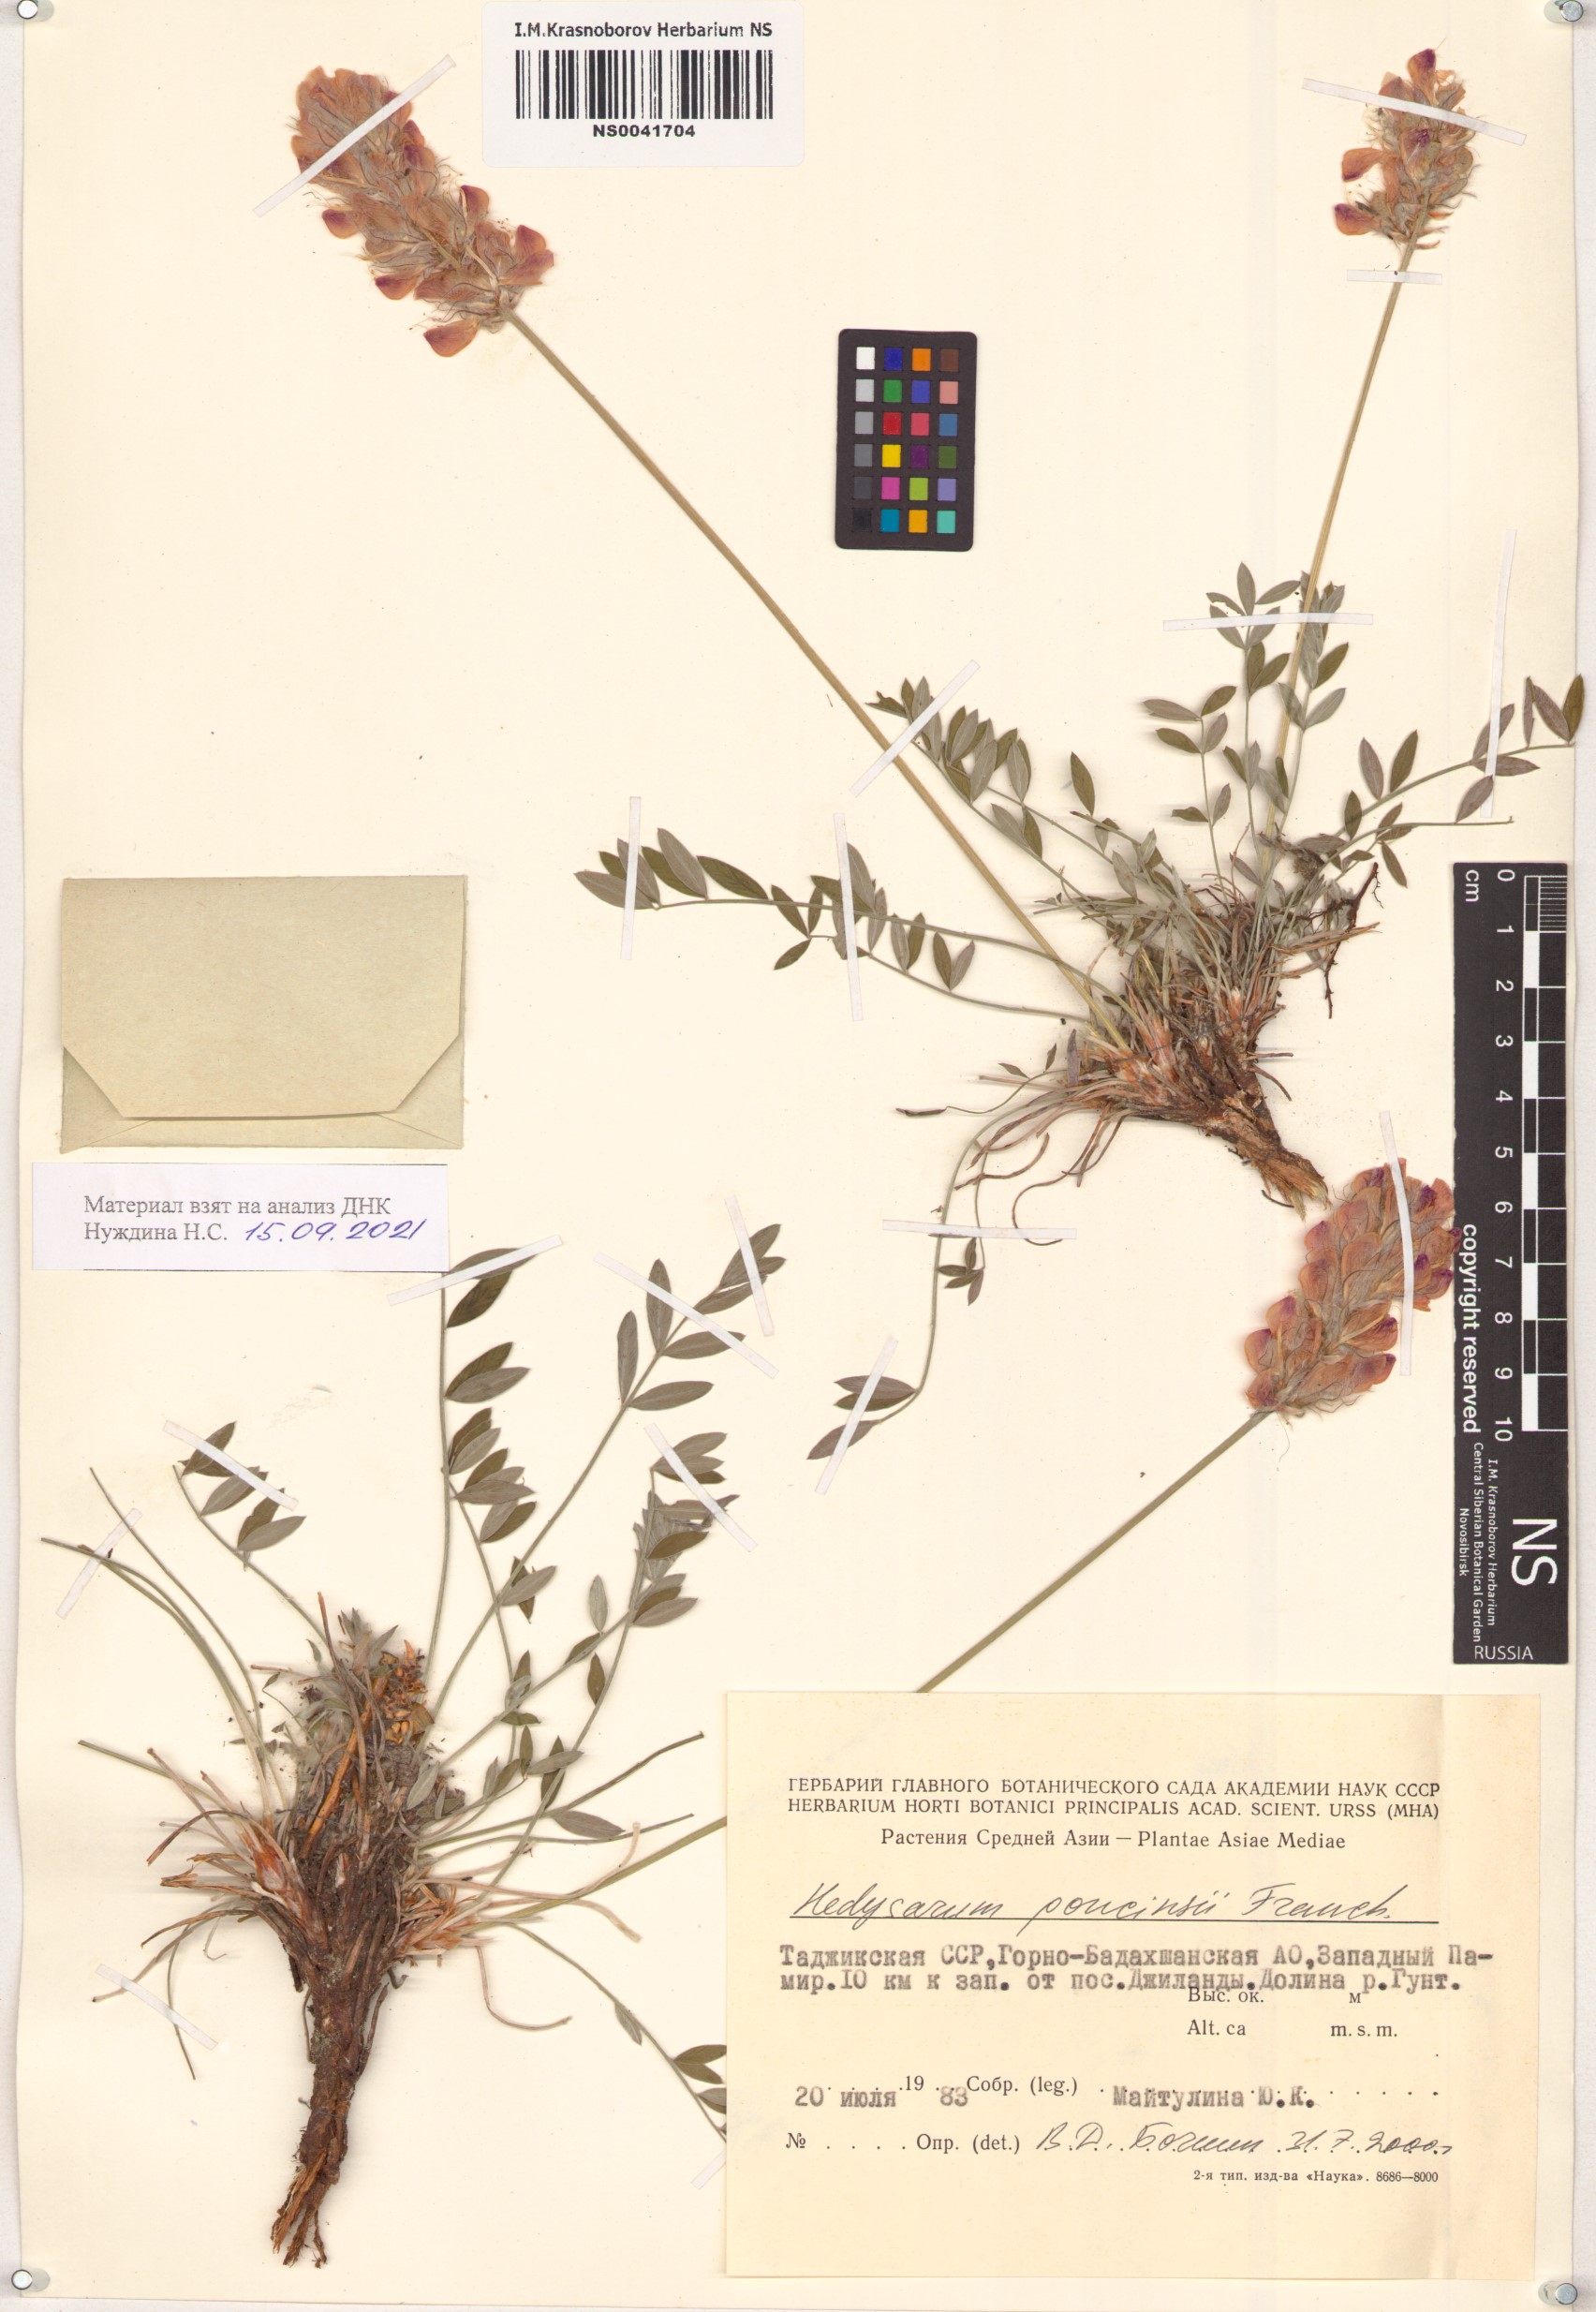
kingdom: Plantae
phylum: Tracheophyta
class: Magnoliopsida
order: Fabales
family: Fabaceae
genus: Hedysarum
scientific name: Hedysarum poncinsii
